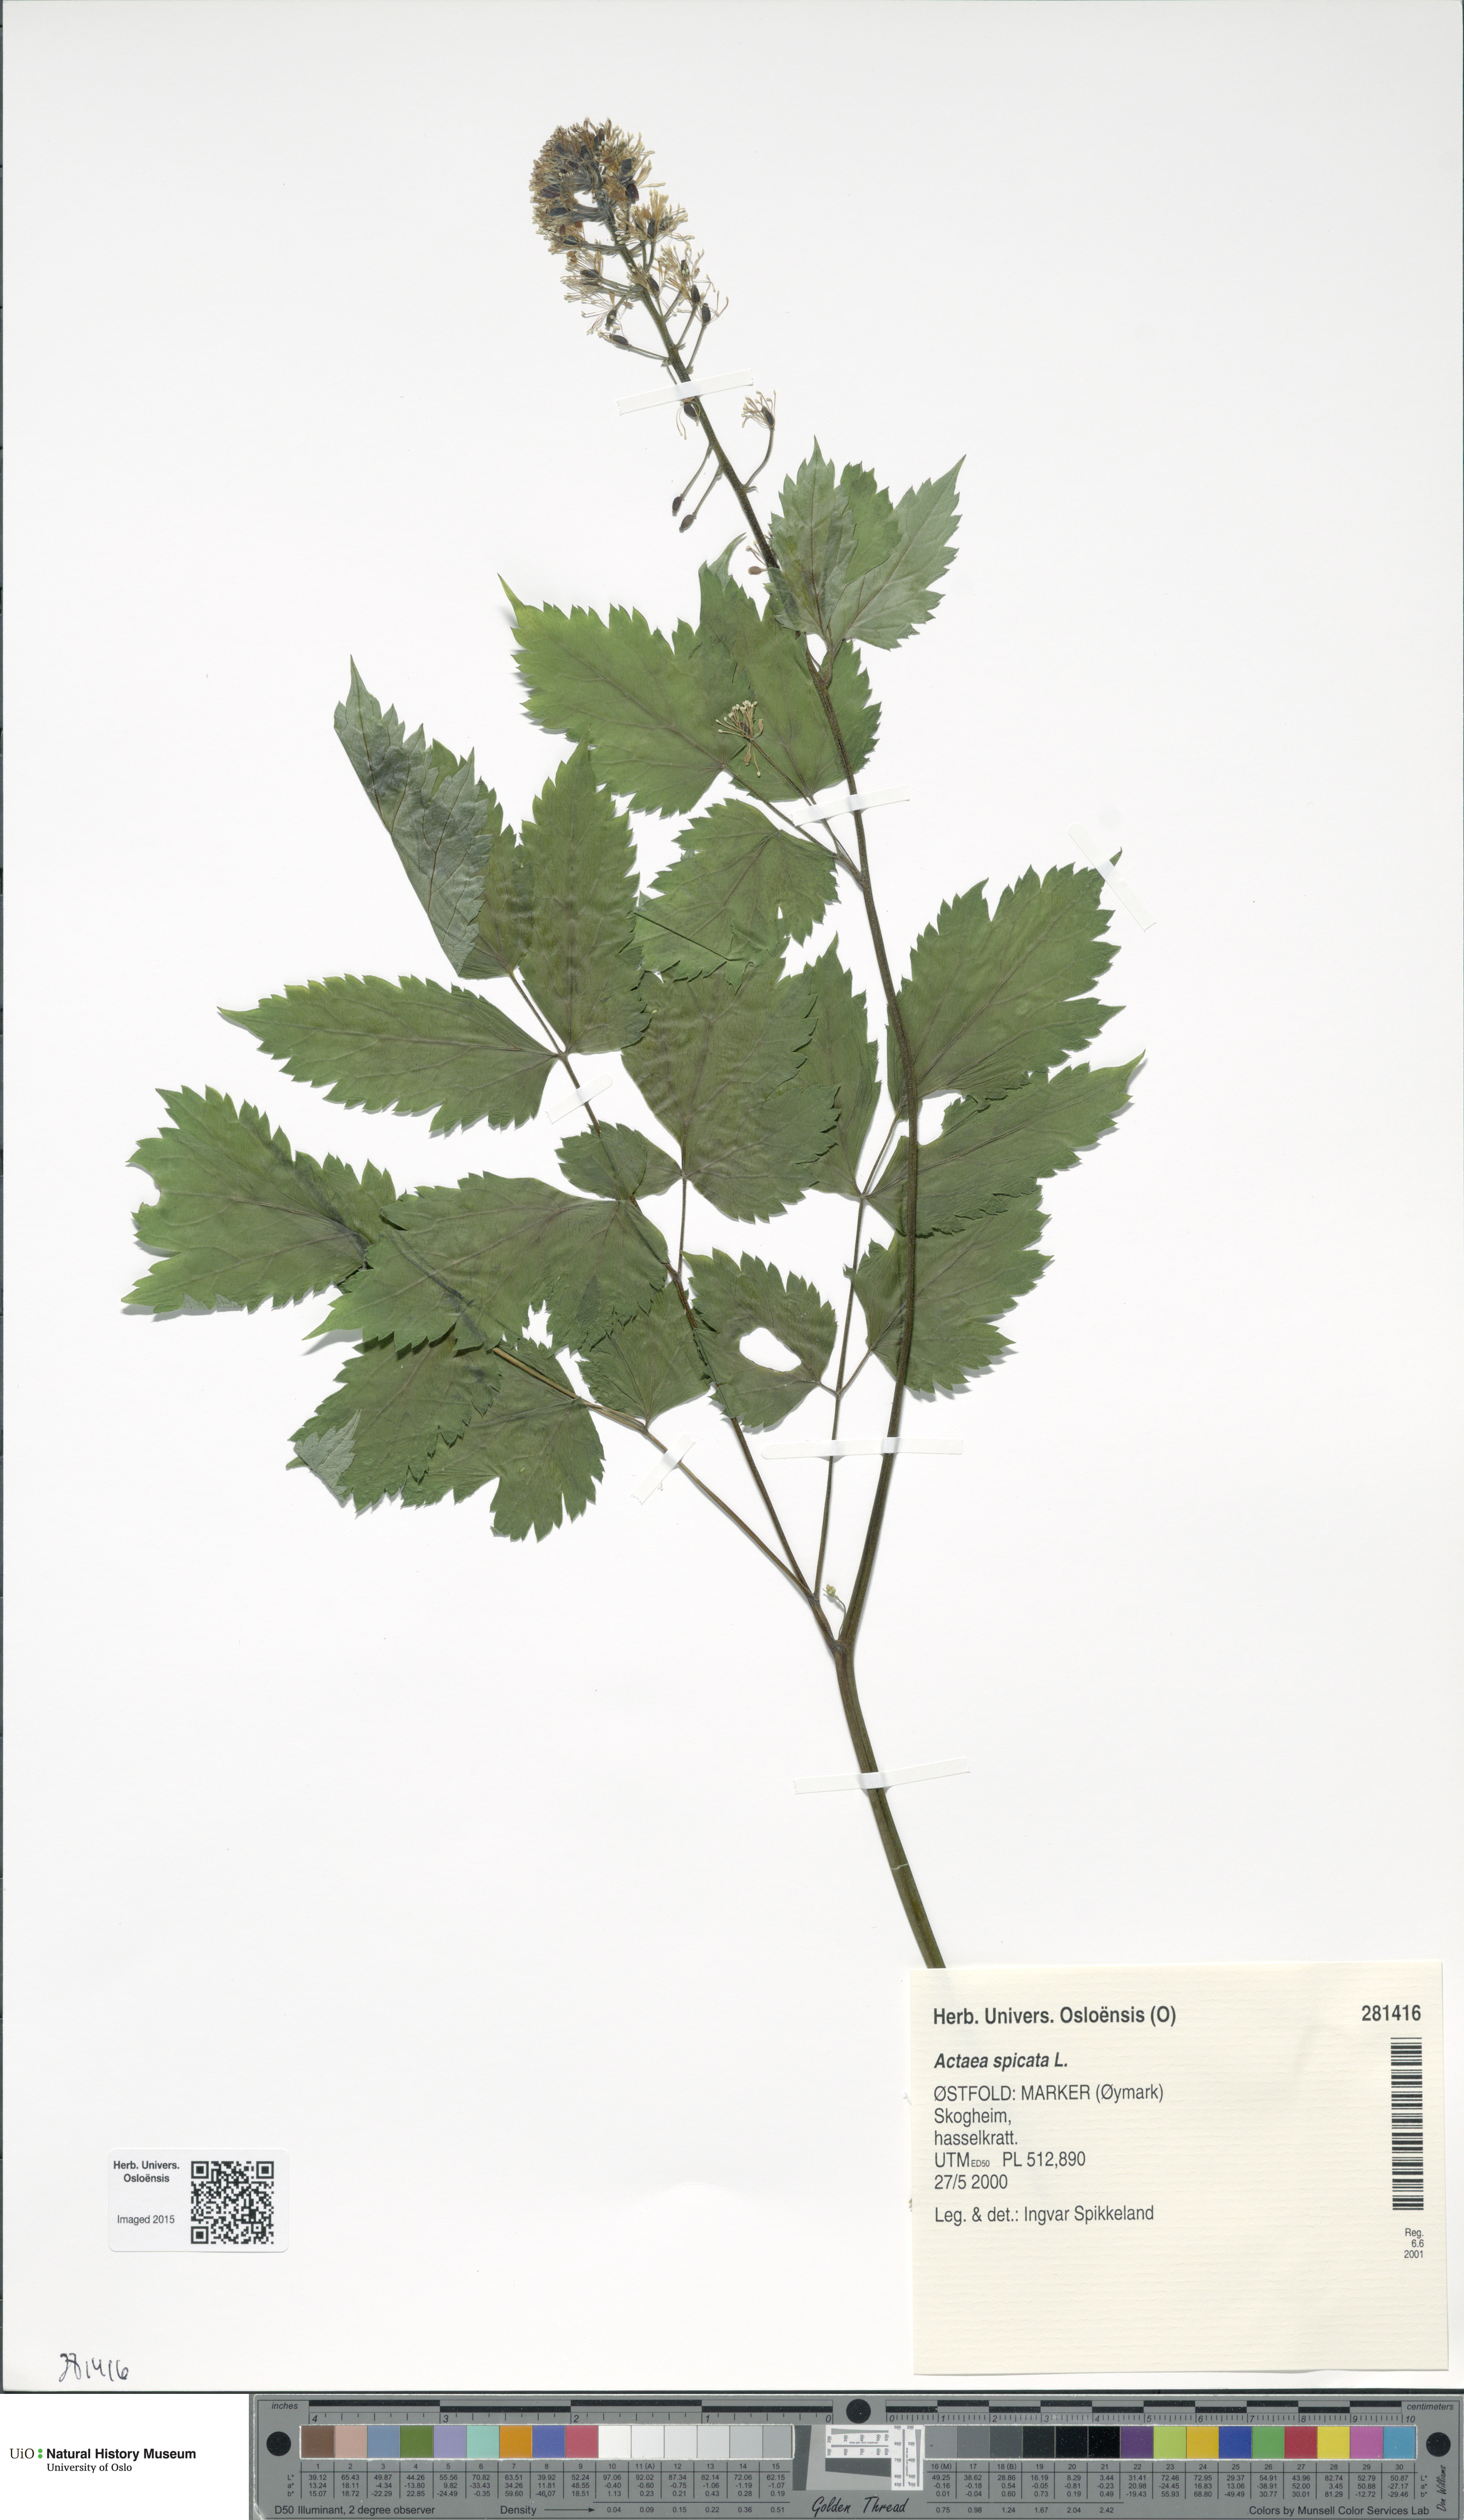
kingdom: Plantae
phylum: Tracheophyta
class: Magnoliopsida
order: Ranunculales
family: Ranunculaceae
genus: Actaea
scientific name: Actaea spicata
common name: Baneberry
